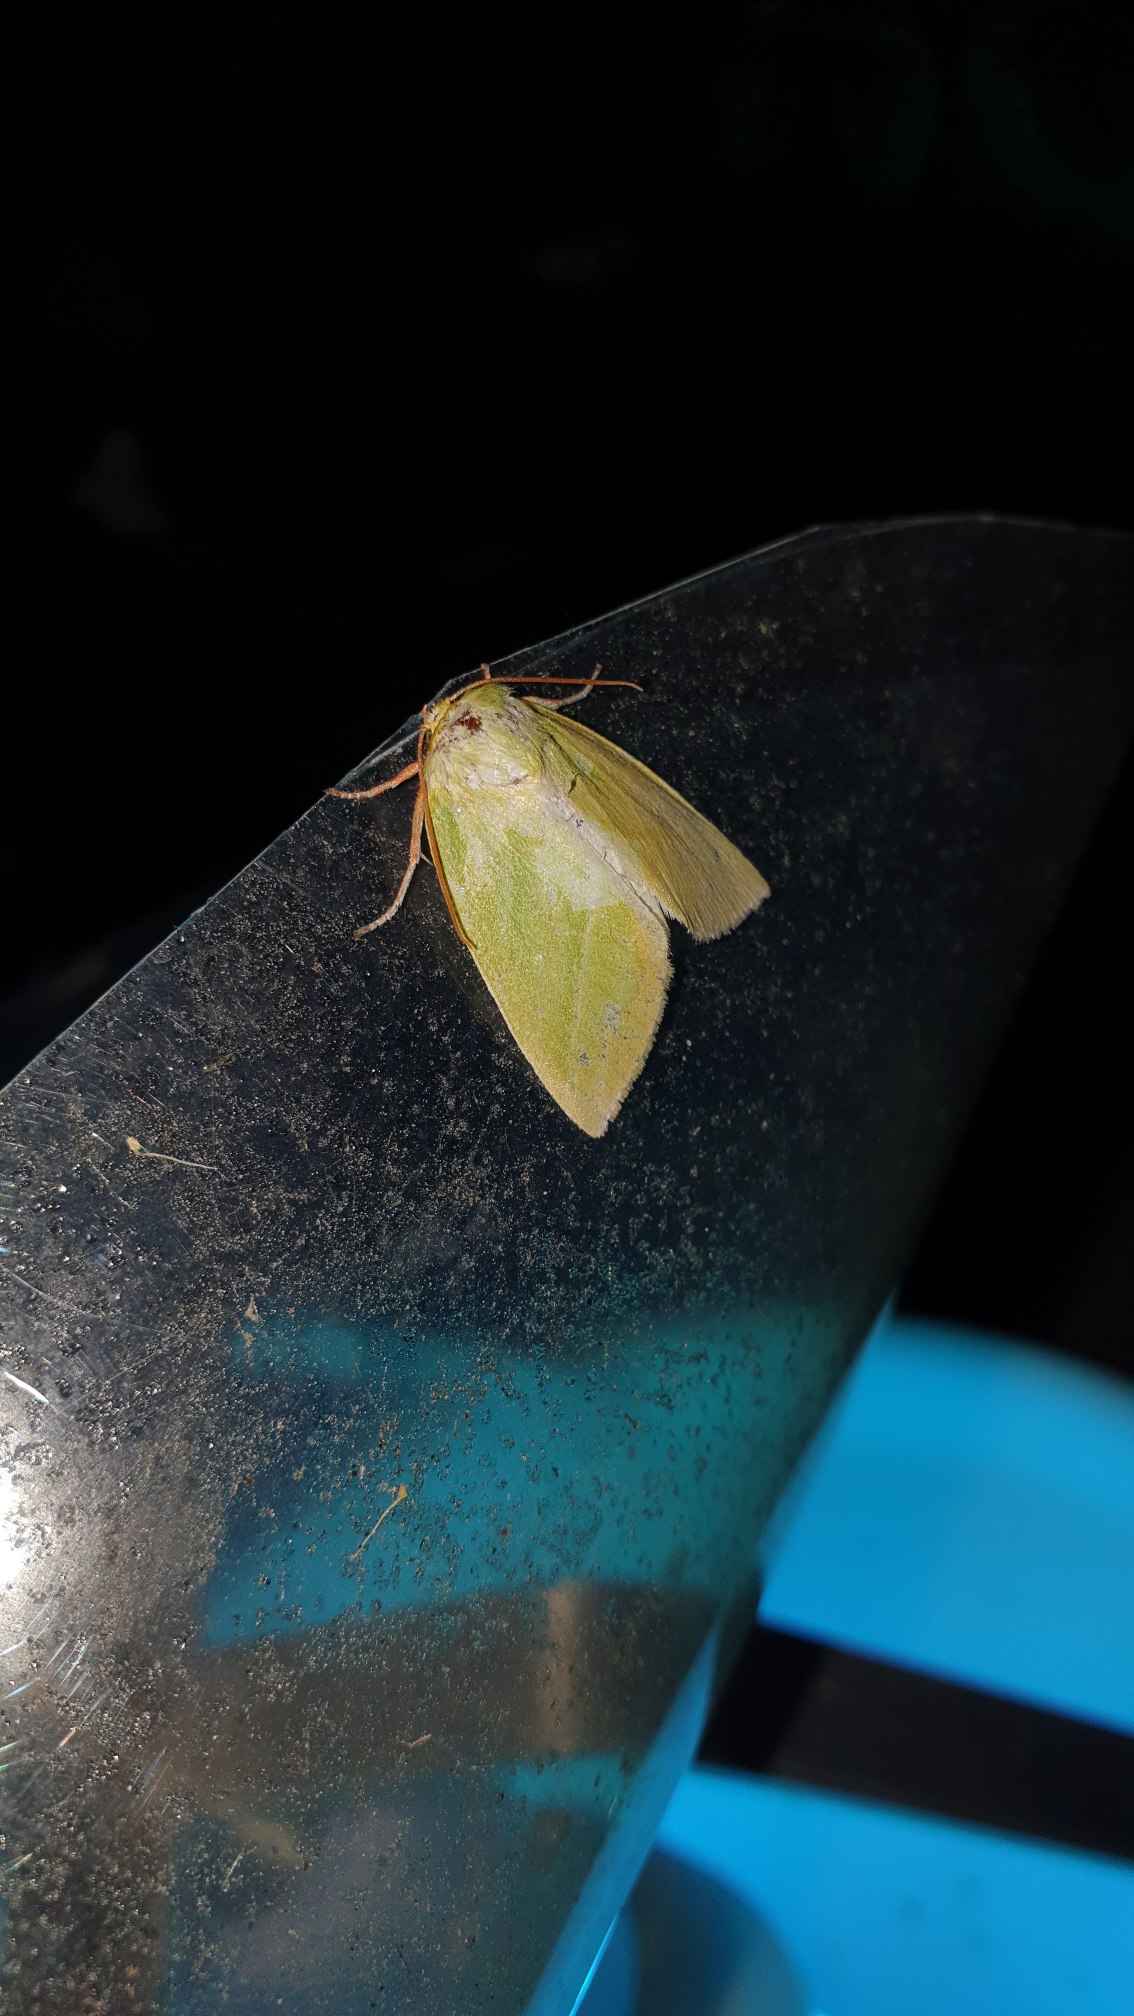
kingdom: Animalia
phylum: Arthropoda
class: Insecta
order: Lepidoptera
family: Nolidae
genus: Pseudoips
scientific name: Pseudoips prasinana
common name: Grøn bøgeugle
